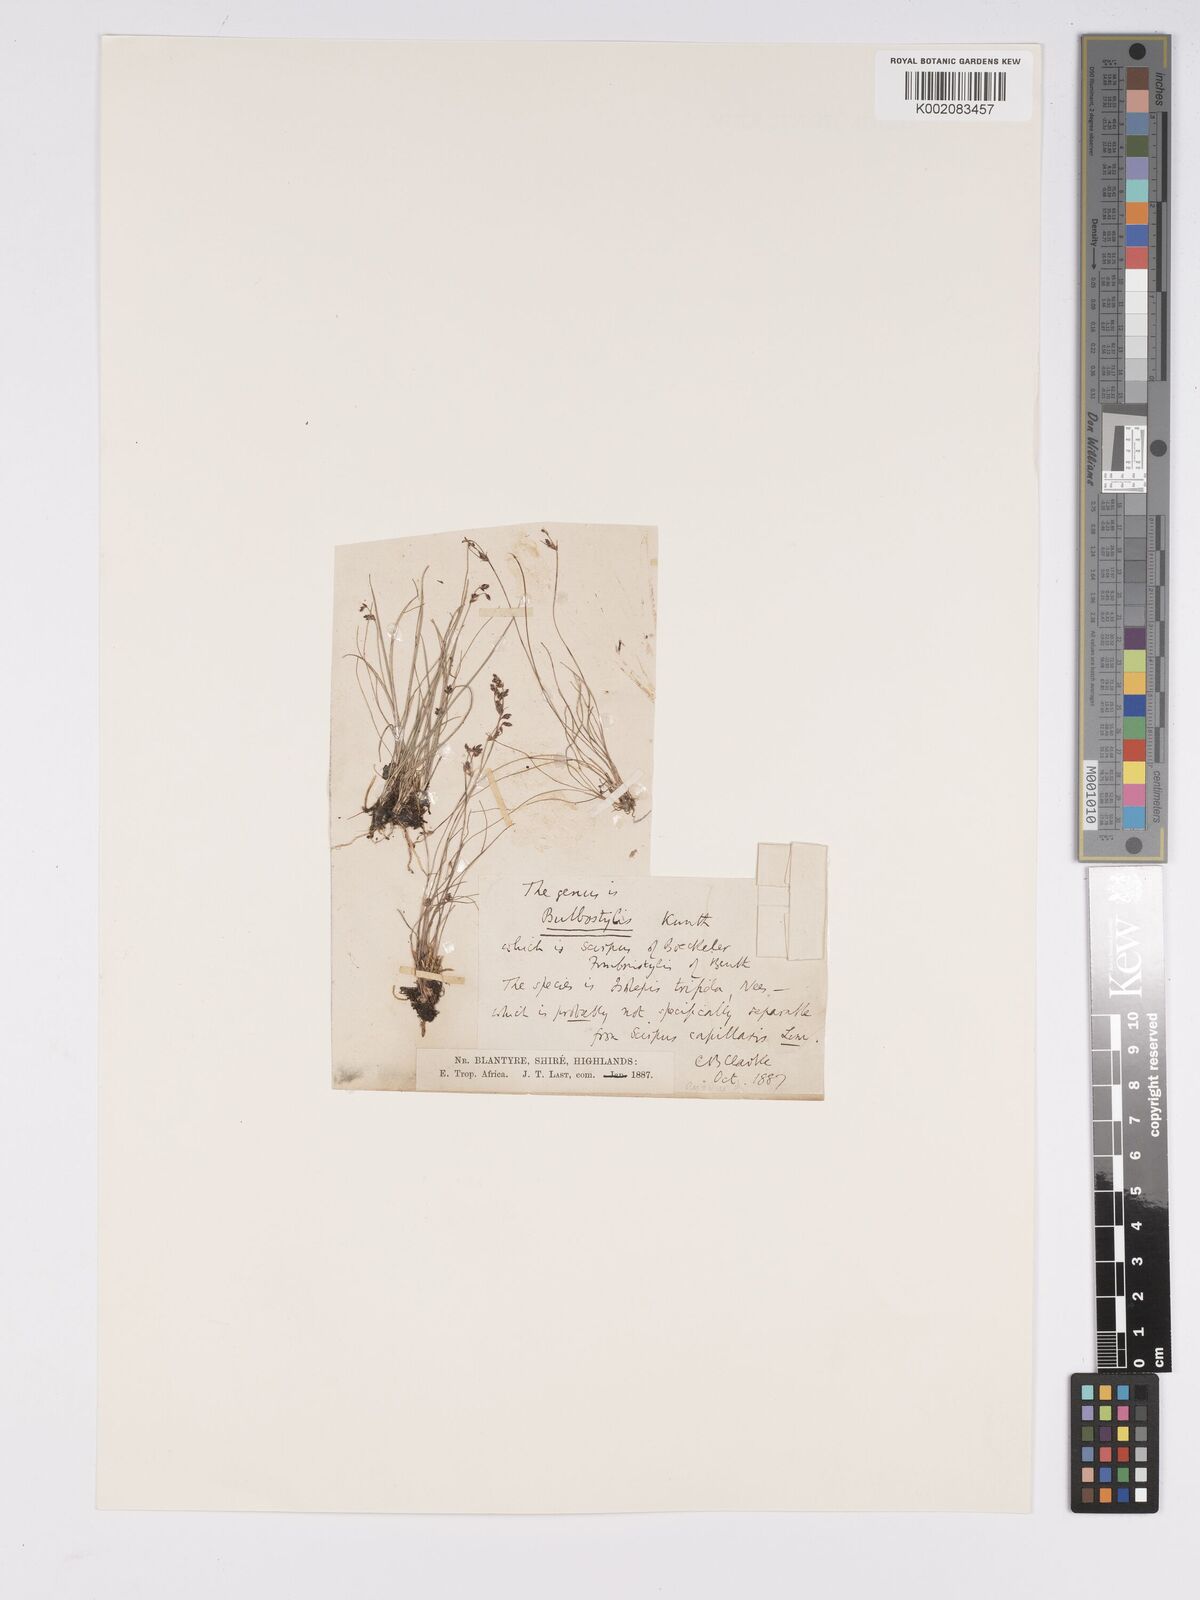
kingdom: Plantae
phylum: Tracheophyta
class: Liliopsida
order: Poales
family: Cyperaceae
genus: Bulbostylis
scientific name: Bulbostylis capillaris
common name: Densetuft hairsedge
